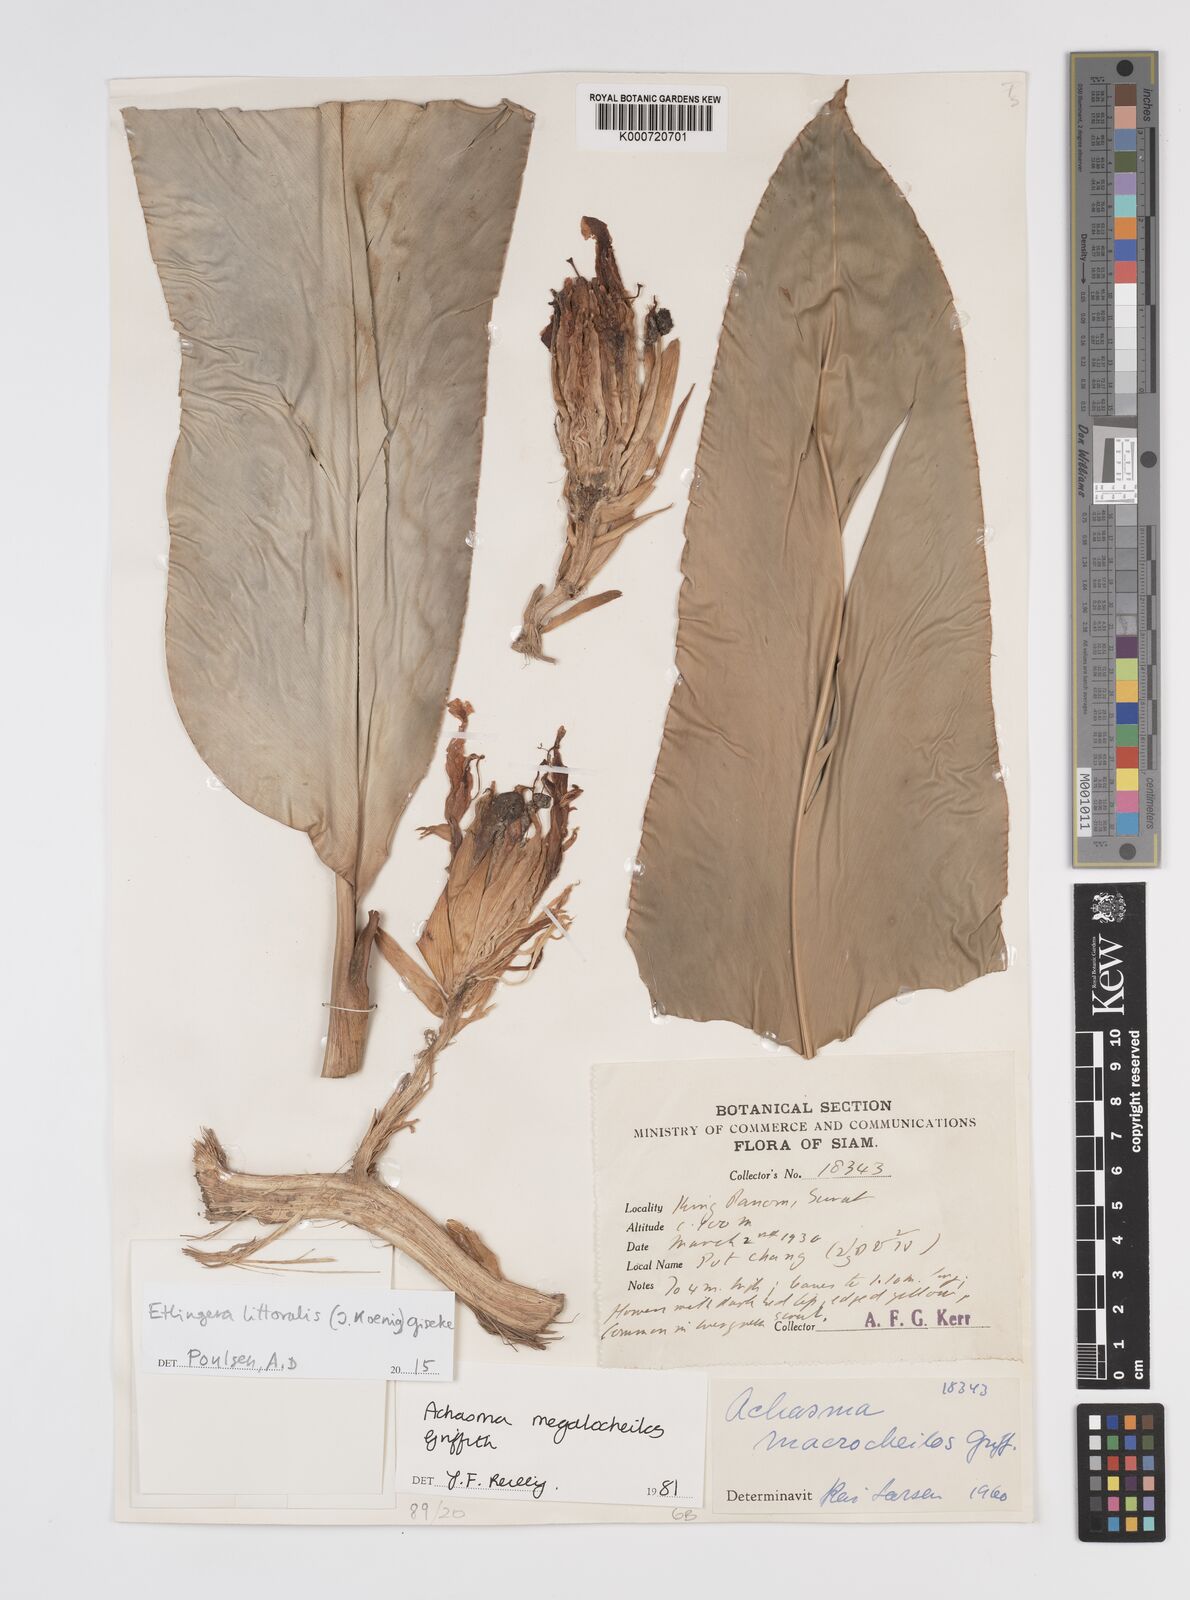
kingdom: Plantae
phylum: Tracheophyta
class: Liliopsida
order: Zingiberales
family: Zingiberaceae
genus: Etlingera
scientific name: Etlingera littoralis
